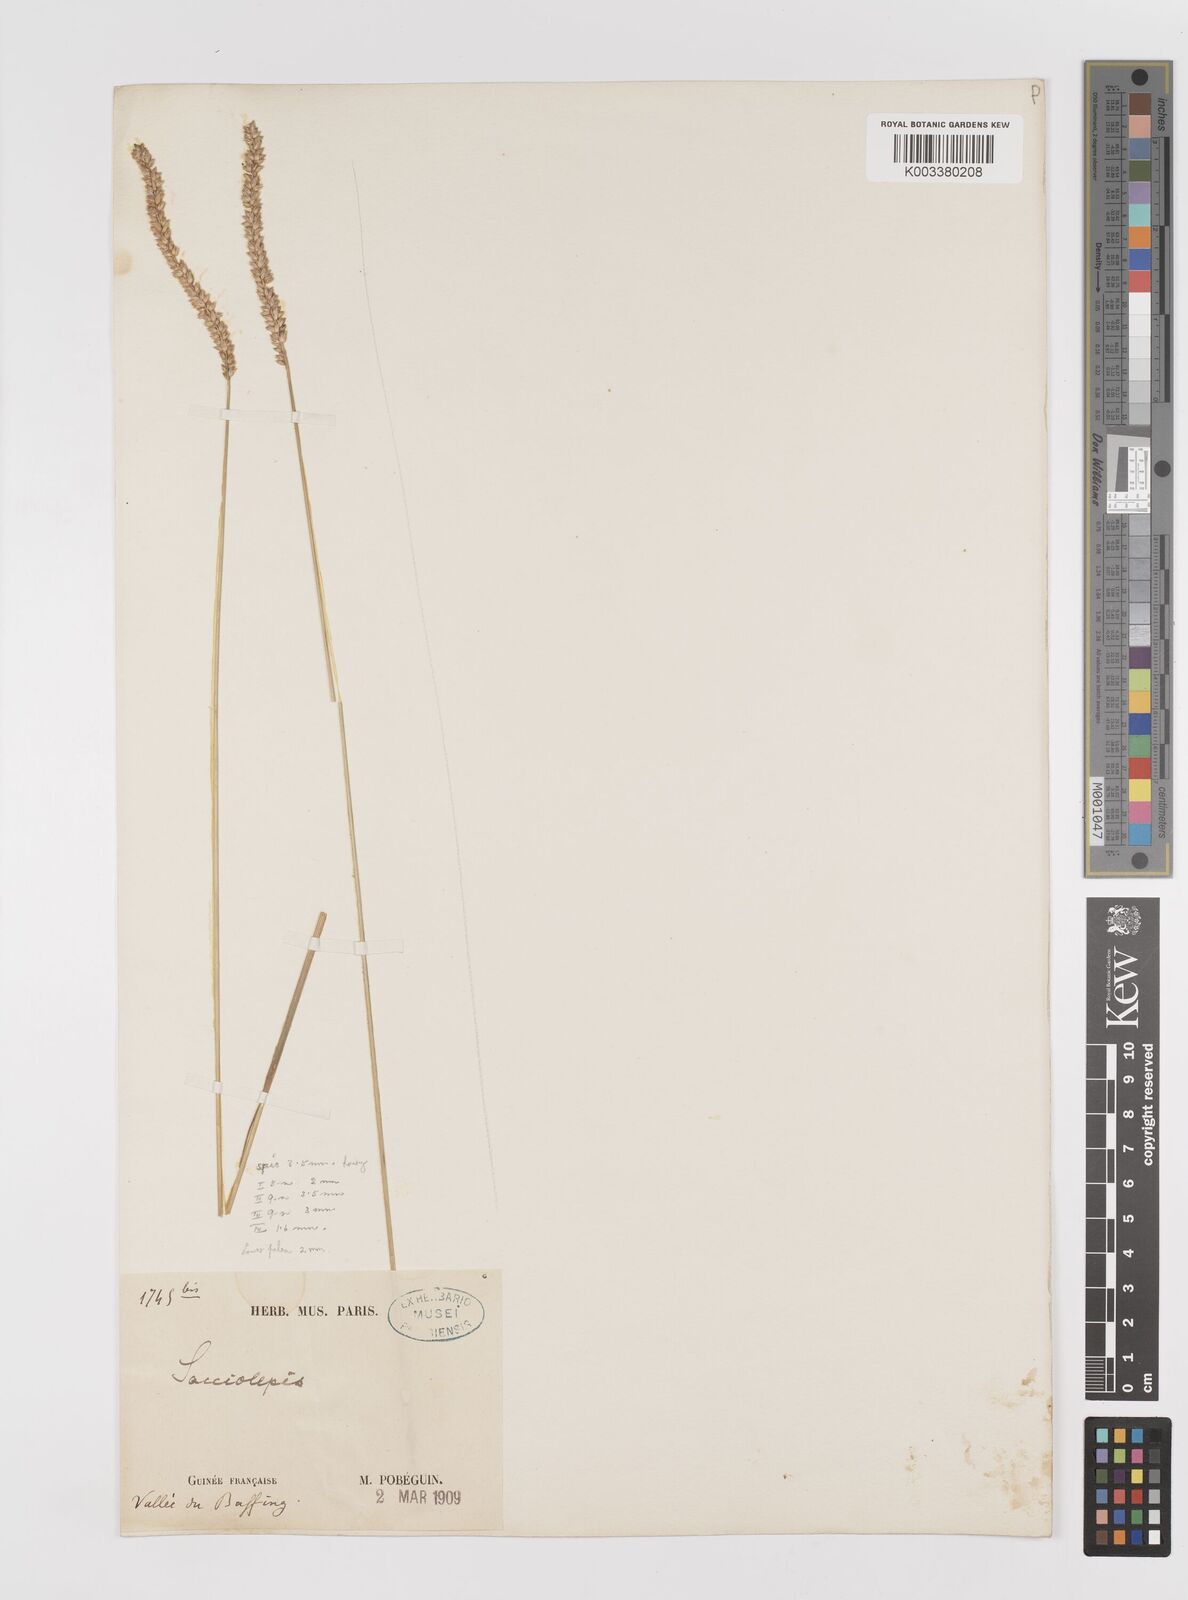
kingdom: Plantae
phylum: Tracheophyta
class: Liliopsida
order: Poales
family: Poaceae
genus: Sacciolepis
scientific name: Sacciolepis indica
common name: Glenwoodgrass
